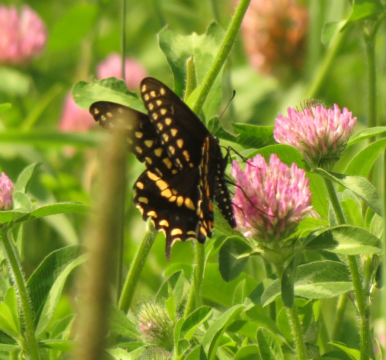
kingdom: Animalia
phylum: Arthropoda
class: Insecta
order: Lepidoptera
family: Papilionidae
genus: Papilio
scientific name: Papilio polyxenes
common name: Black Swallowtail
